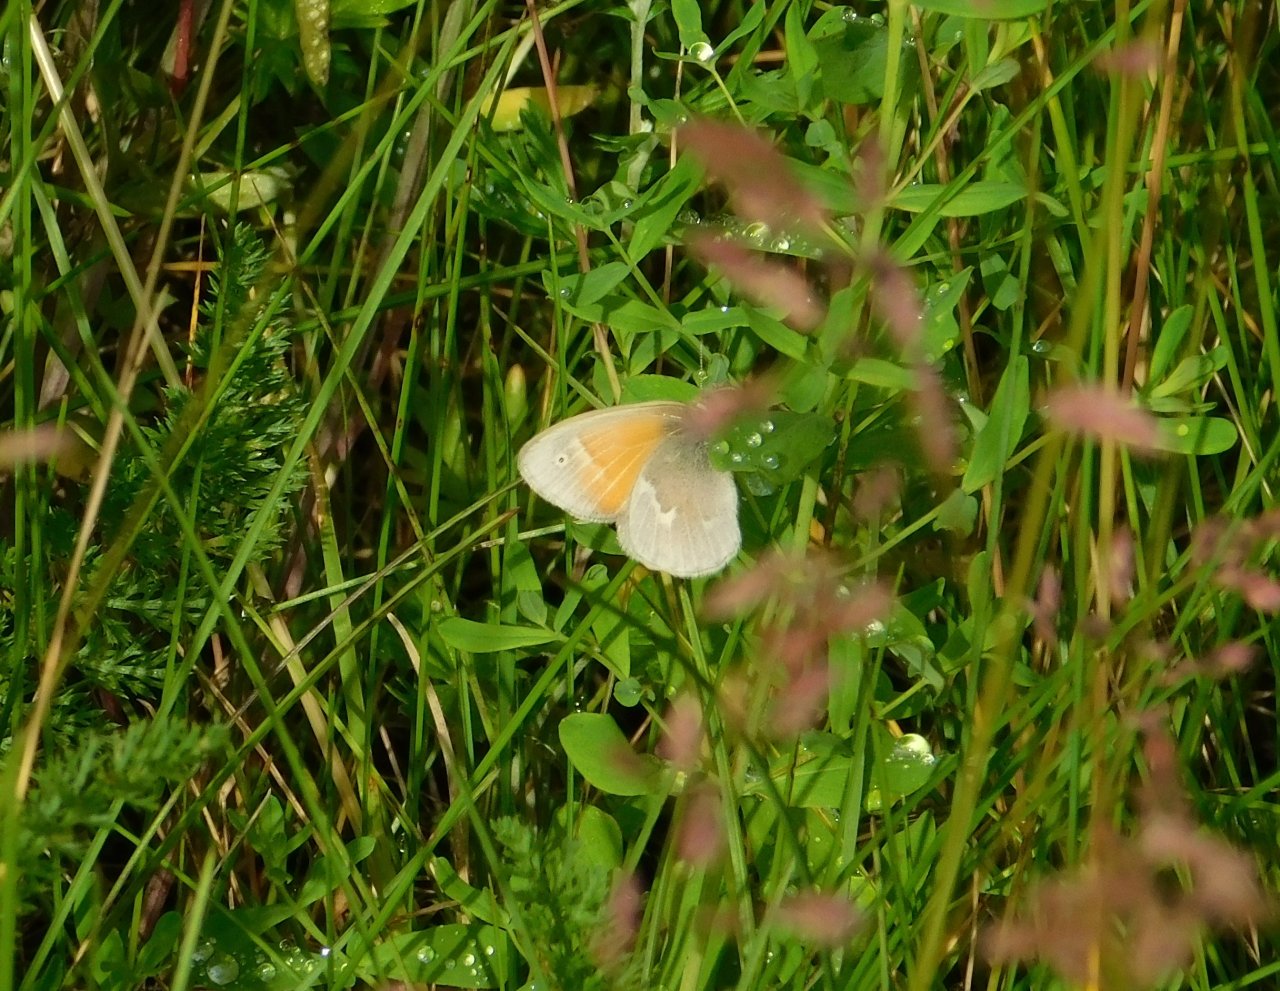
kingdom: Animalia
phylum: Arthropoda
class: Insecta
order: Lepidoptera
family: Nymphalidae
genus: Coenonympha
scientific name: Coenonympha tullia
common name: Large Heath
